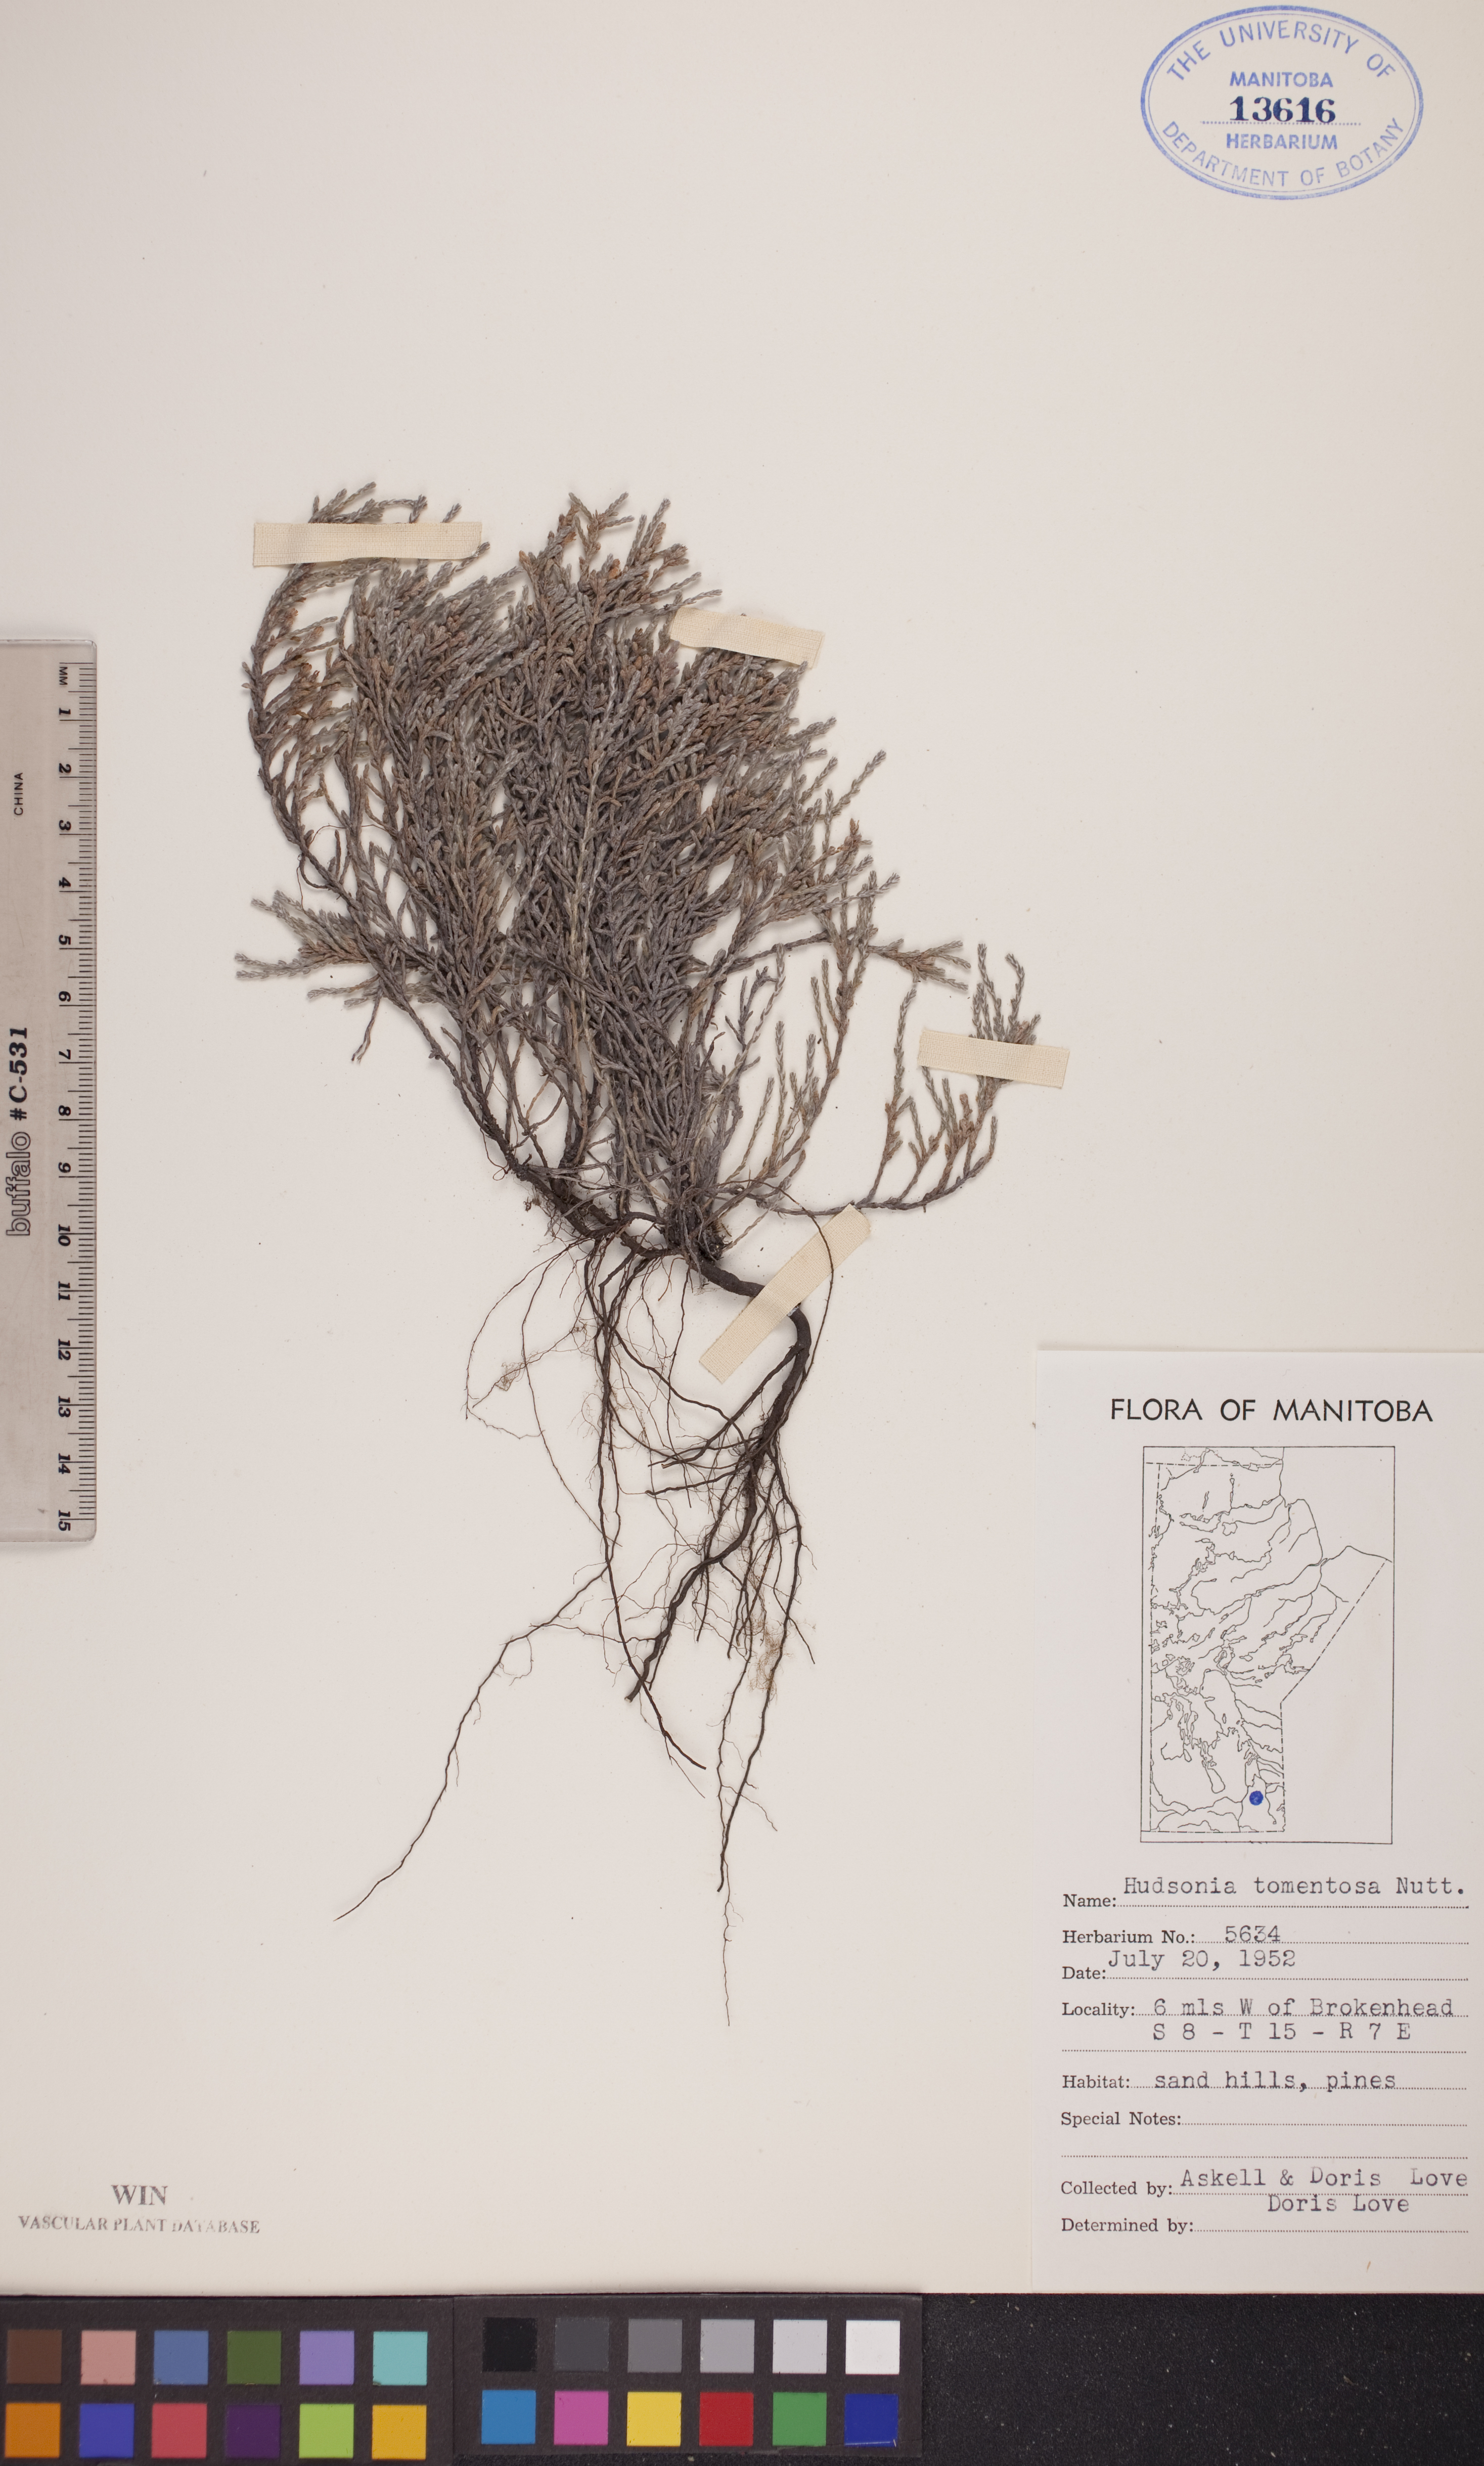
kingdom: Plantae
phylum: Tracheophyta
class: Magnoliopsida
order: Malvales
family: Cistaceae
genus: Hudsonia
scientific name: Hudsonia tomentosa
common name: Beach-heath
